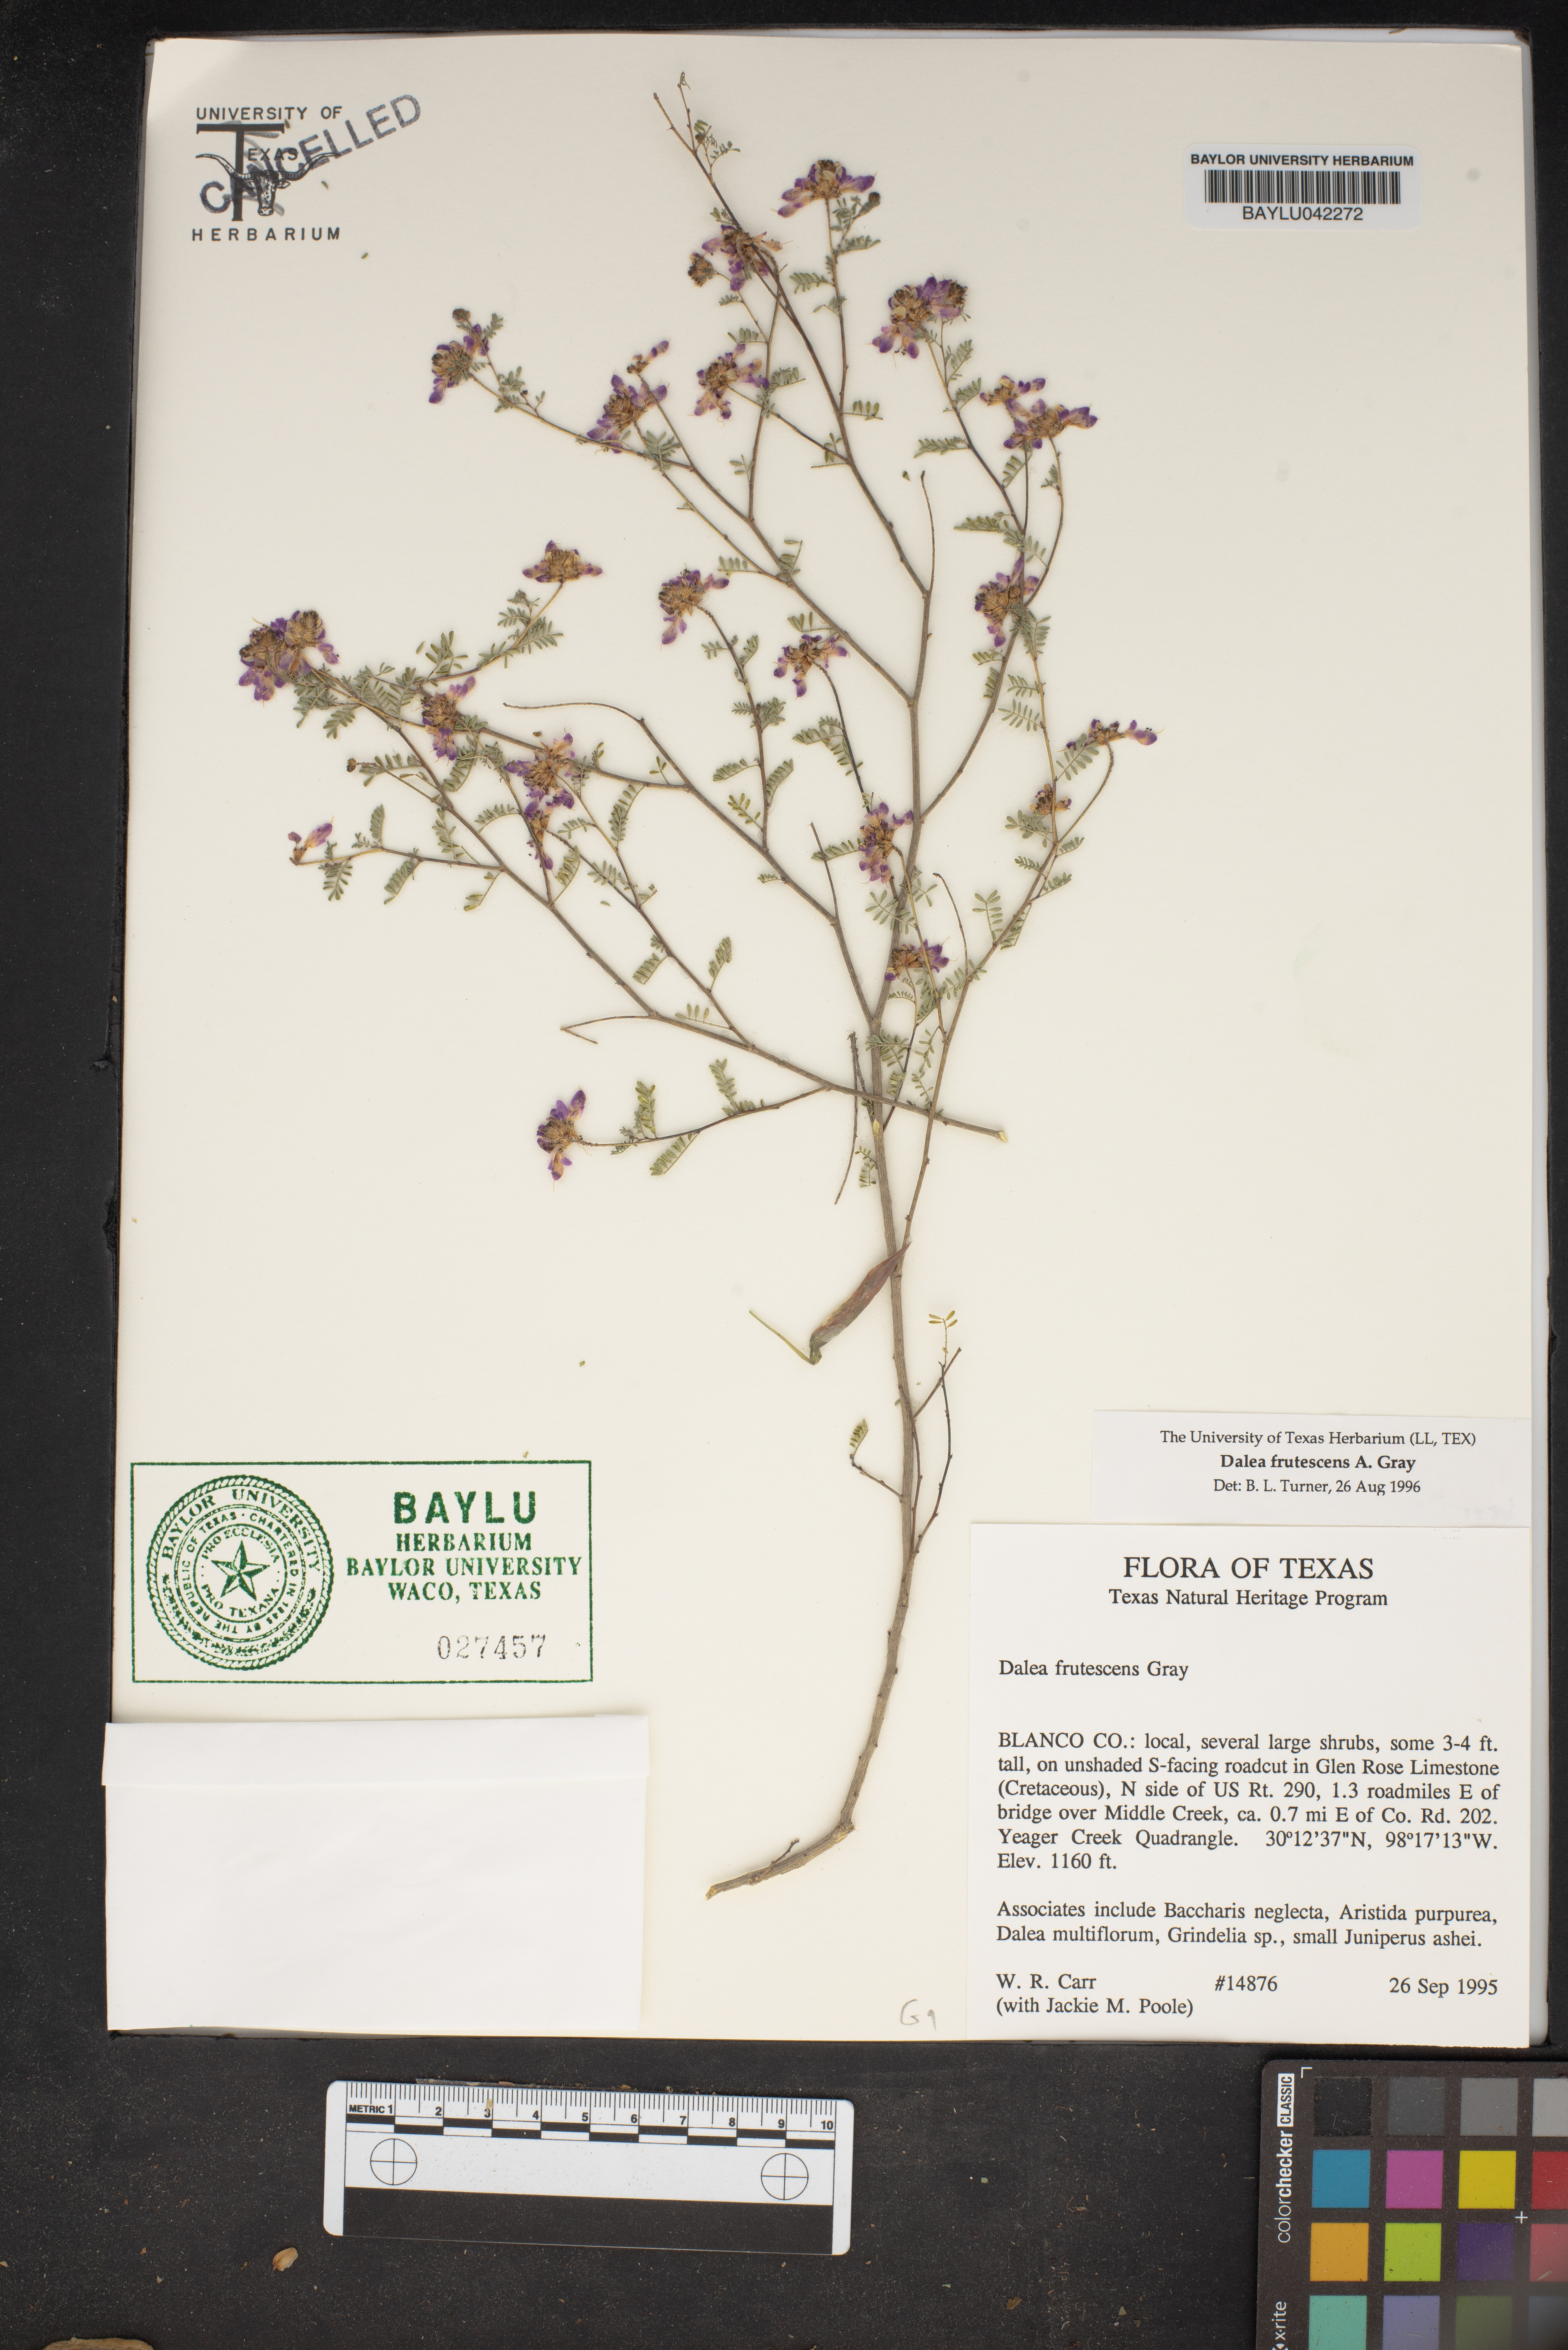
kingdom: Plantae
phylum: Tracheophyta
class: Magnoliopsida
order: Fabales
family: Fabaceae
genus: Dalea
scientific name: Dalea frutescens
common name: Black dalea
